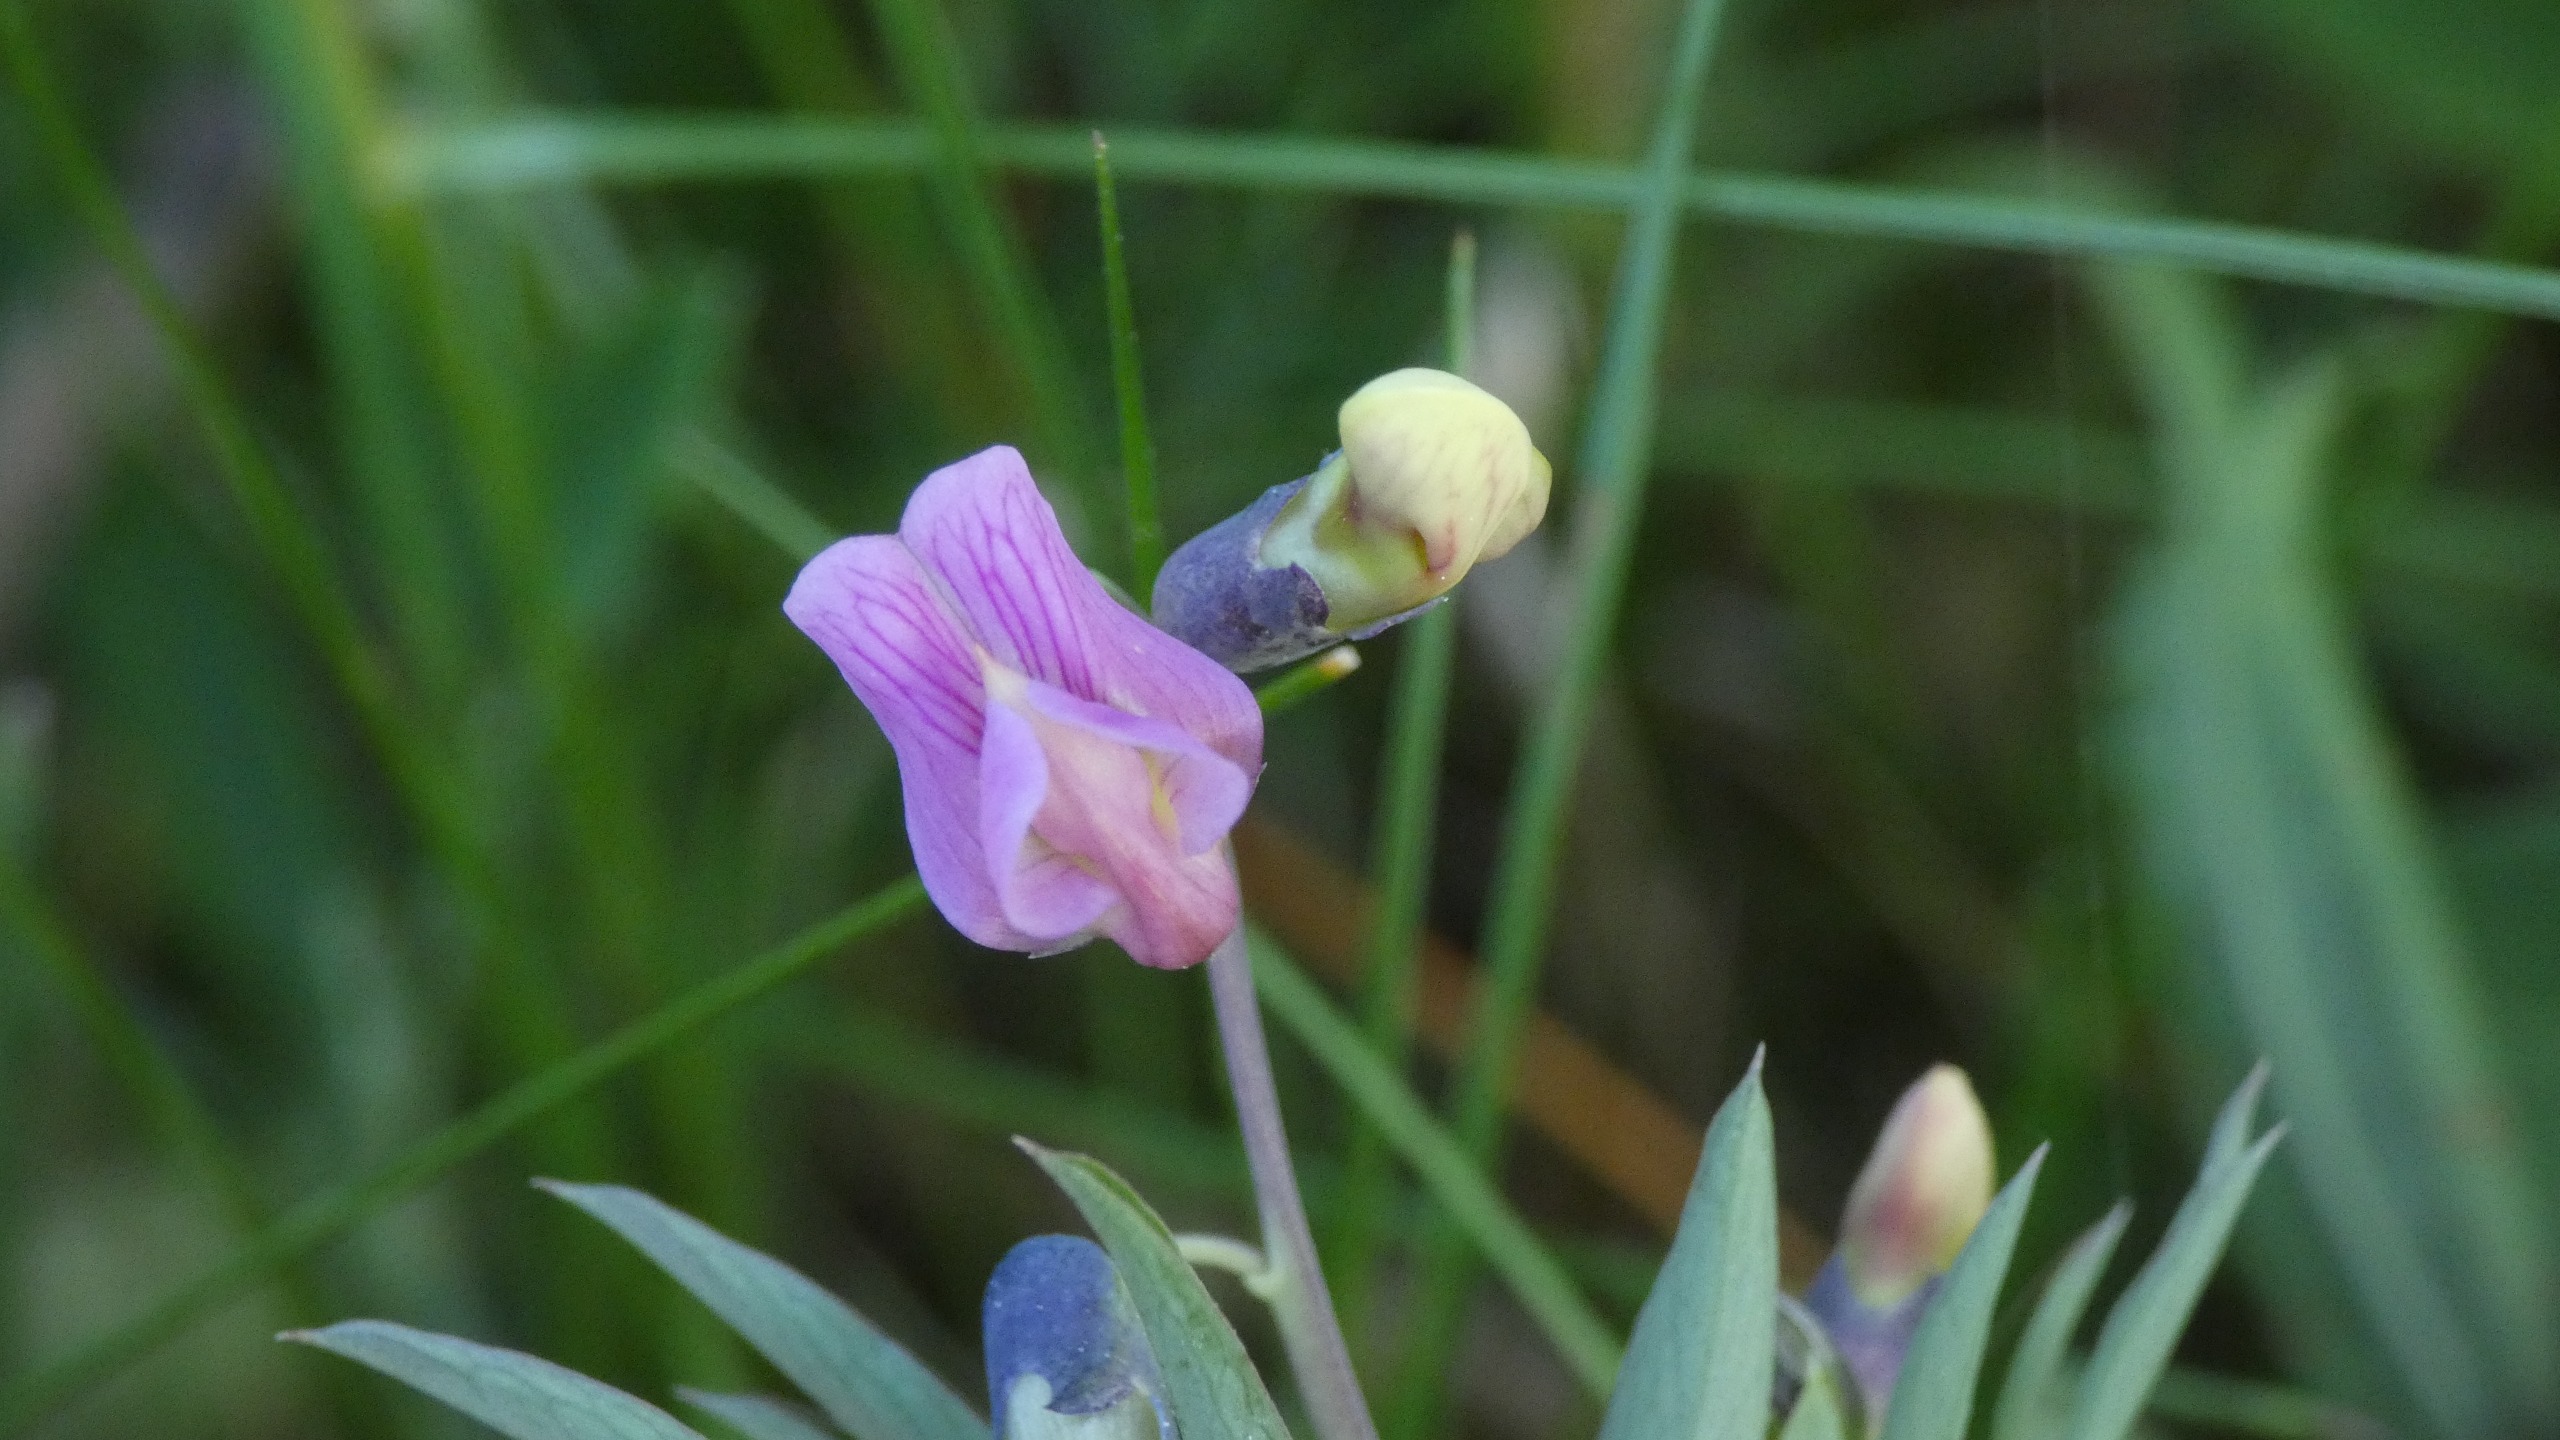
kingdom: Plantae
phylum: Tracheophyta
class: Magnoliopsida
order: Fabales
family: Fabaceae
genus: Lathyrus
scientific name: Lathyrus linifolius
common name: Krat-fladbælg
